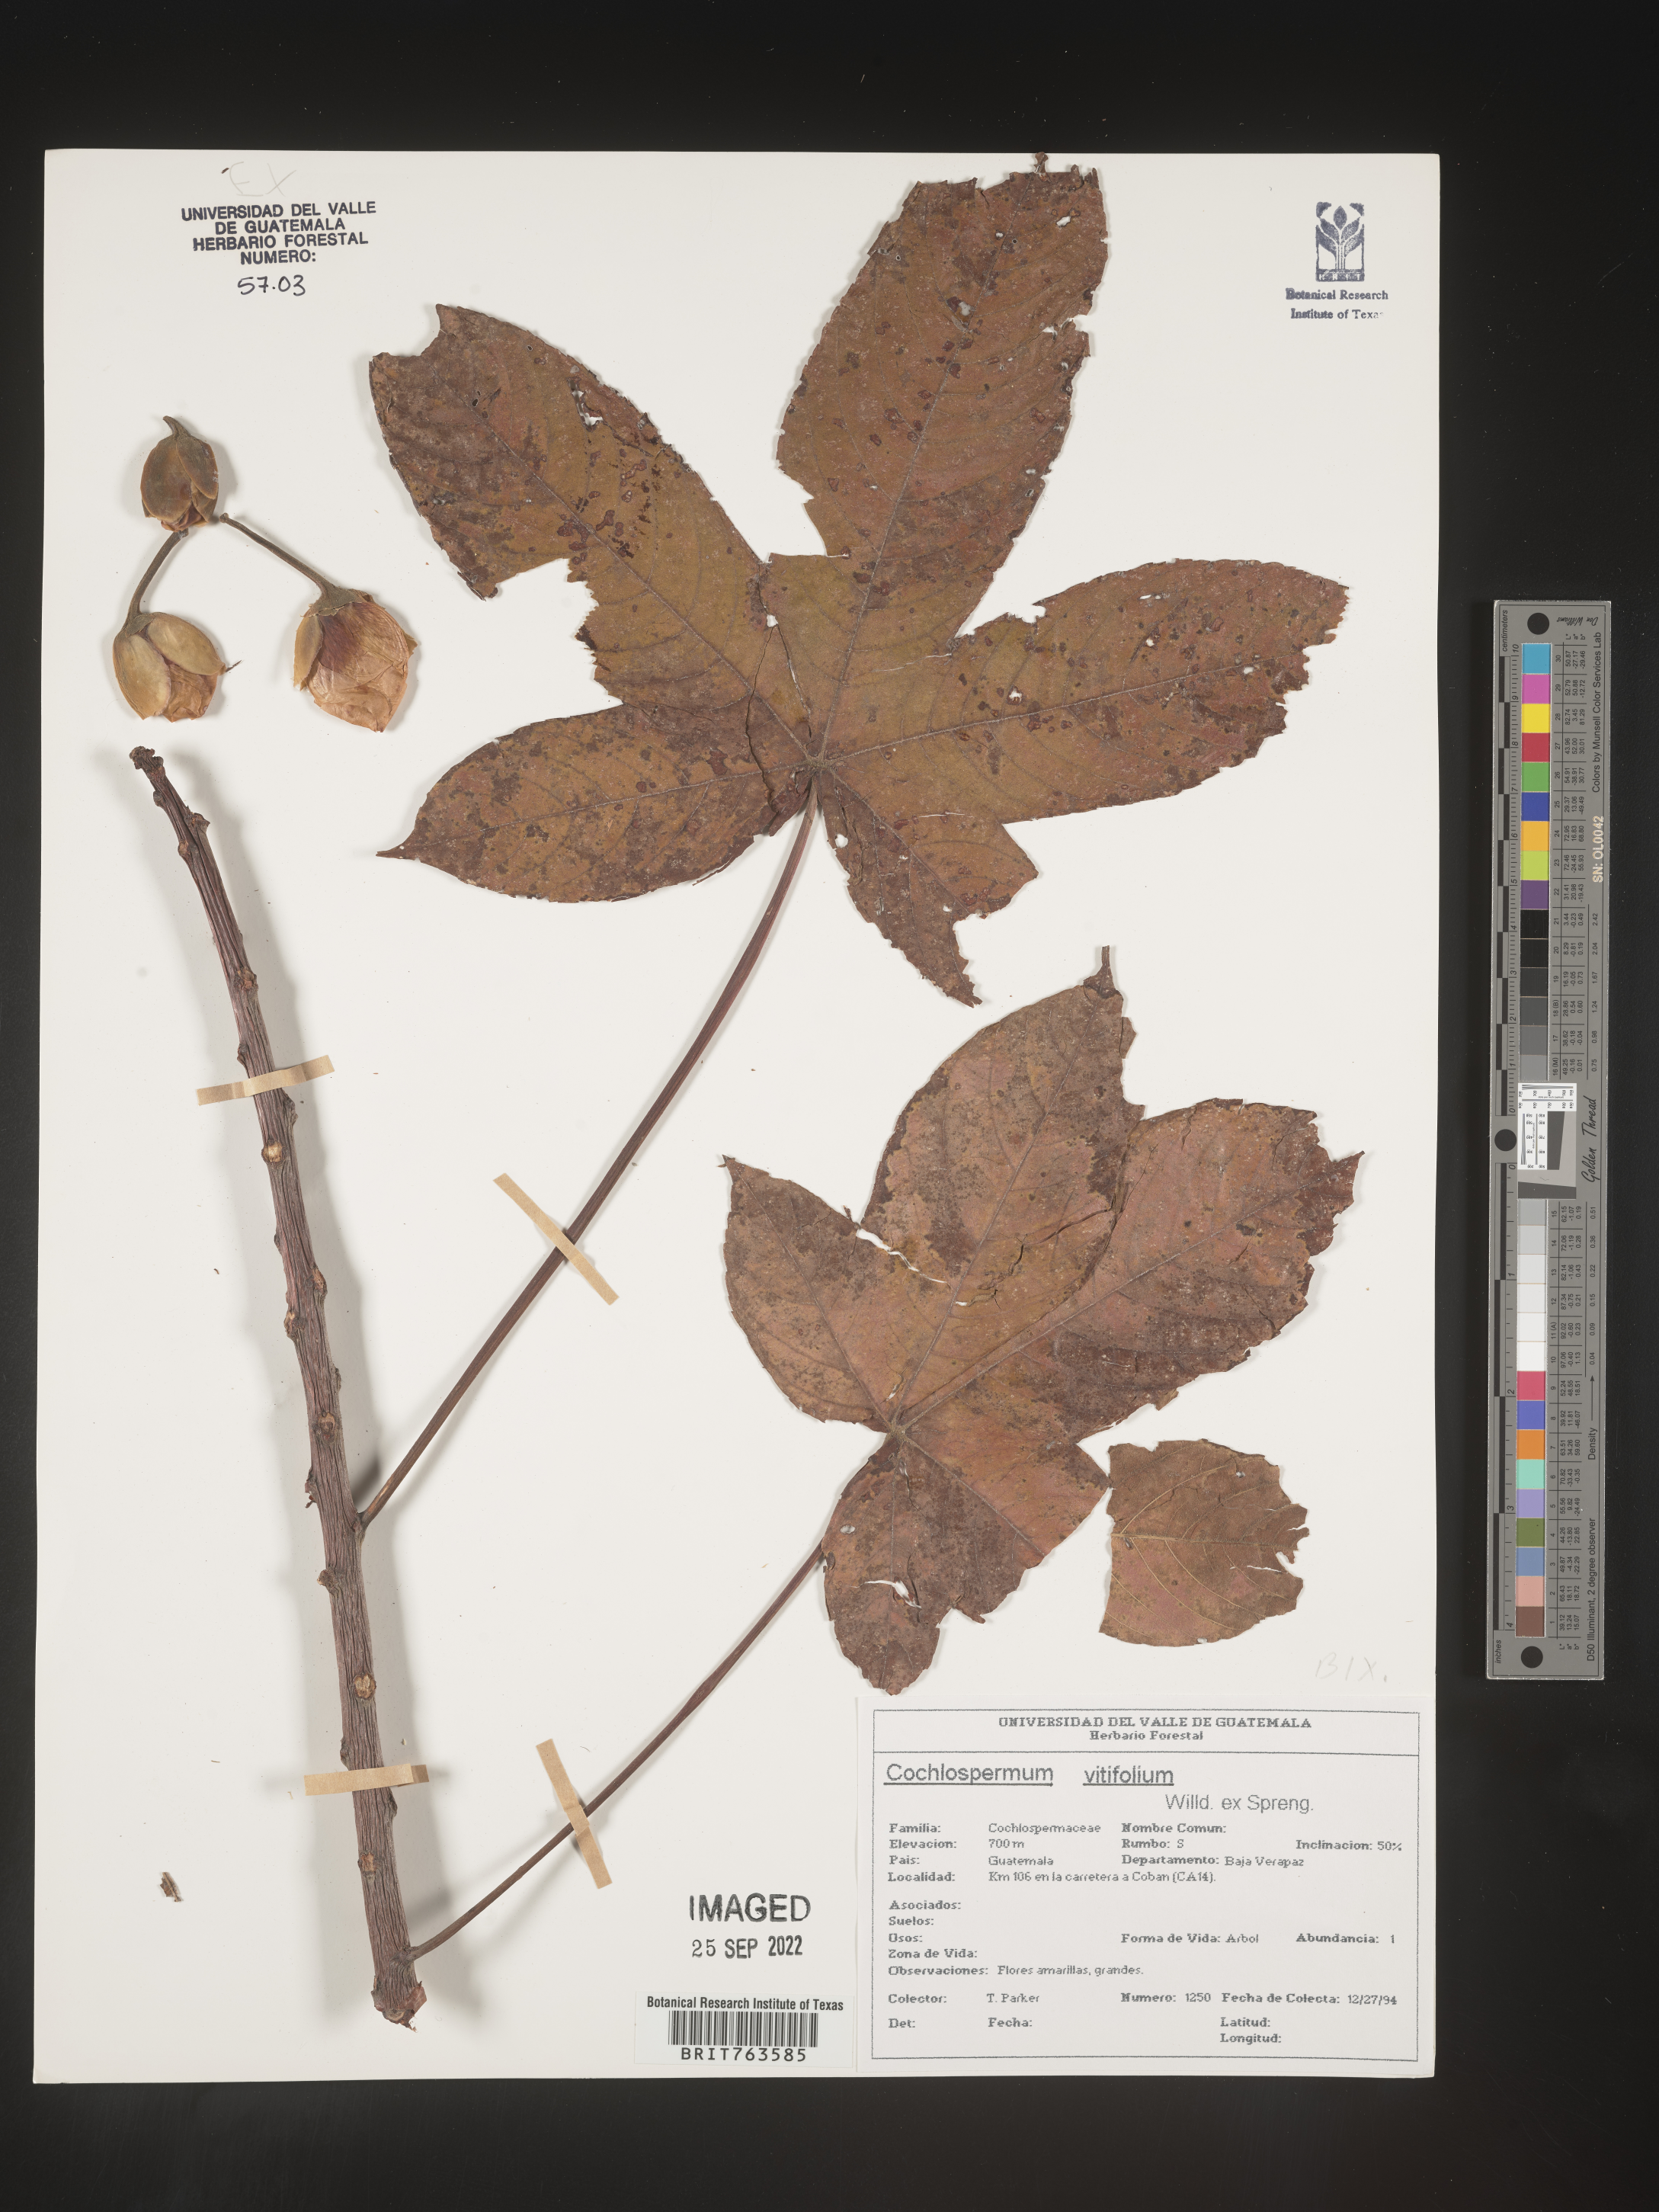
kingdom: Plantae
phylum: Tracheophyta
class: Magnoliopsida
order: Caryophyllales
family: Amaranthaceae
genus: Amoreuxia
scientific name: Amoreuxia
